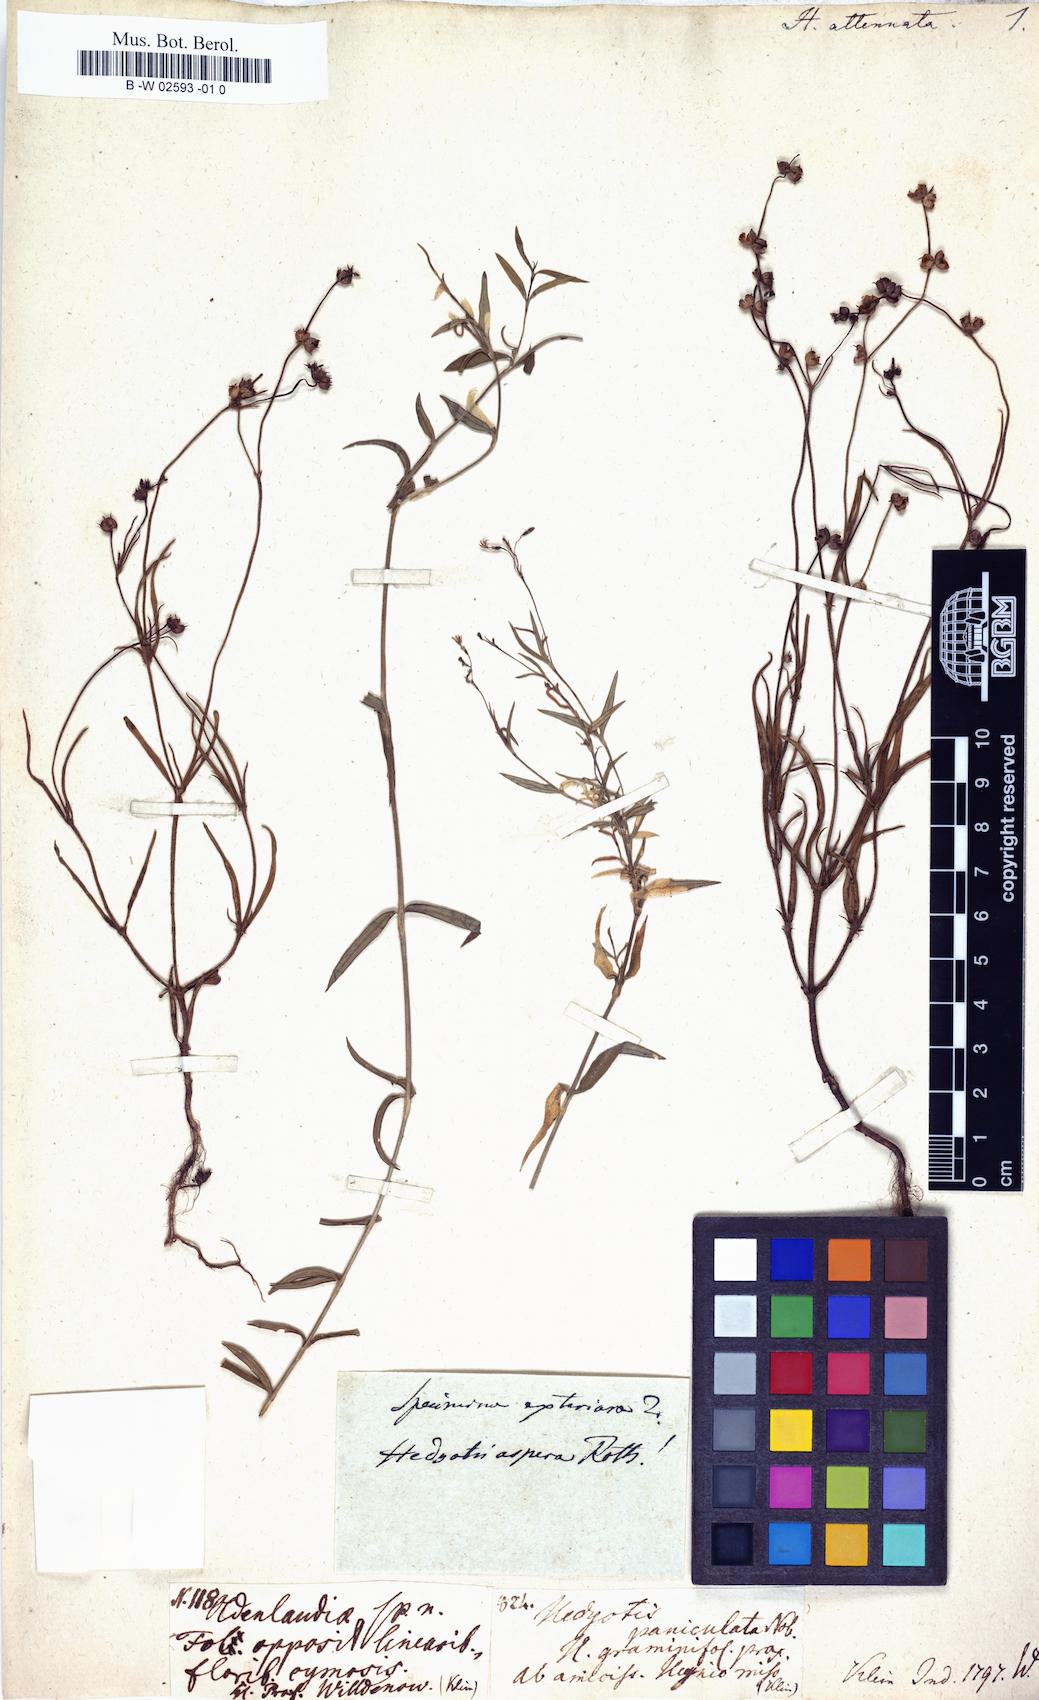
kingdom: Plantae
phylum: Tracheophyta
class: Magnoliopsida
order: Gentianales
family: Rubiaceae
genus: Kohautia
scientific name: Kohautia aspera
